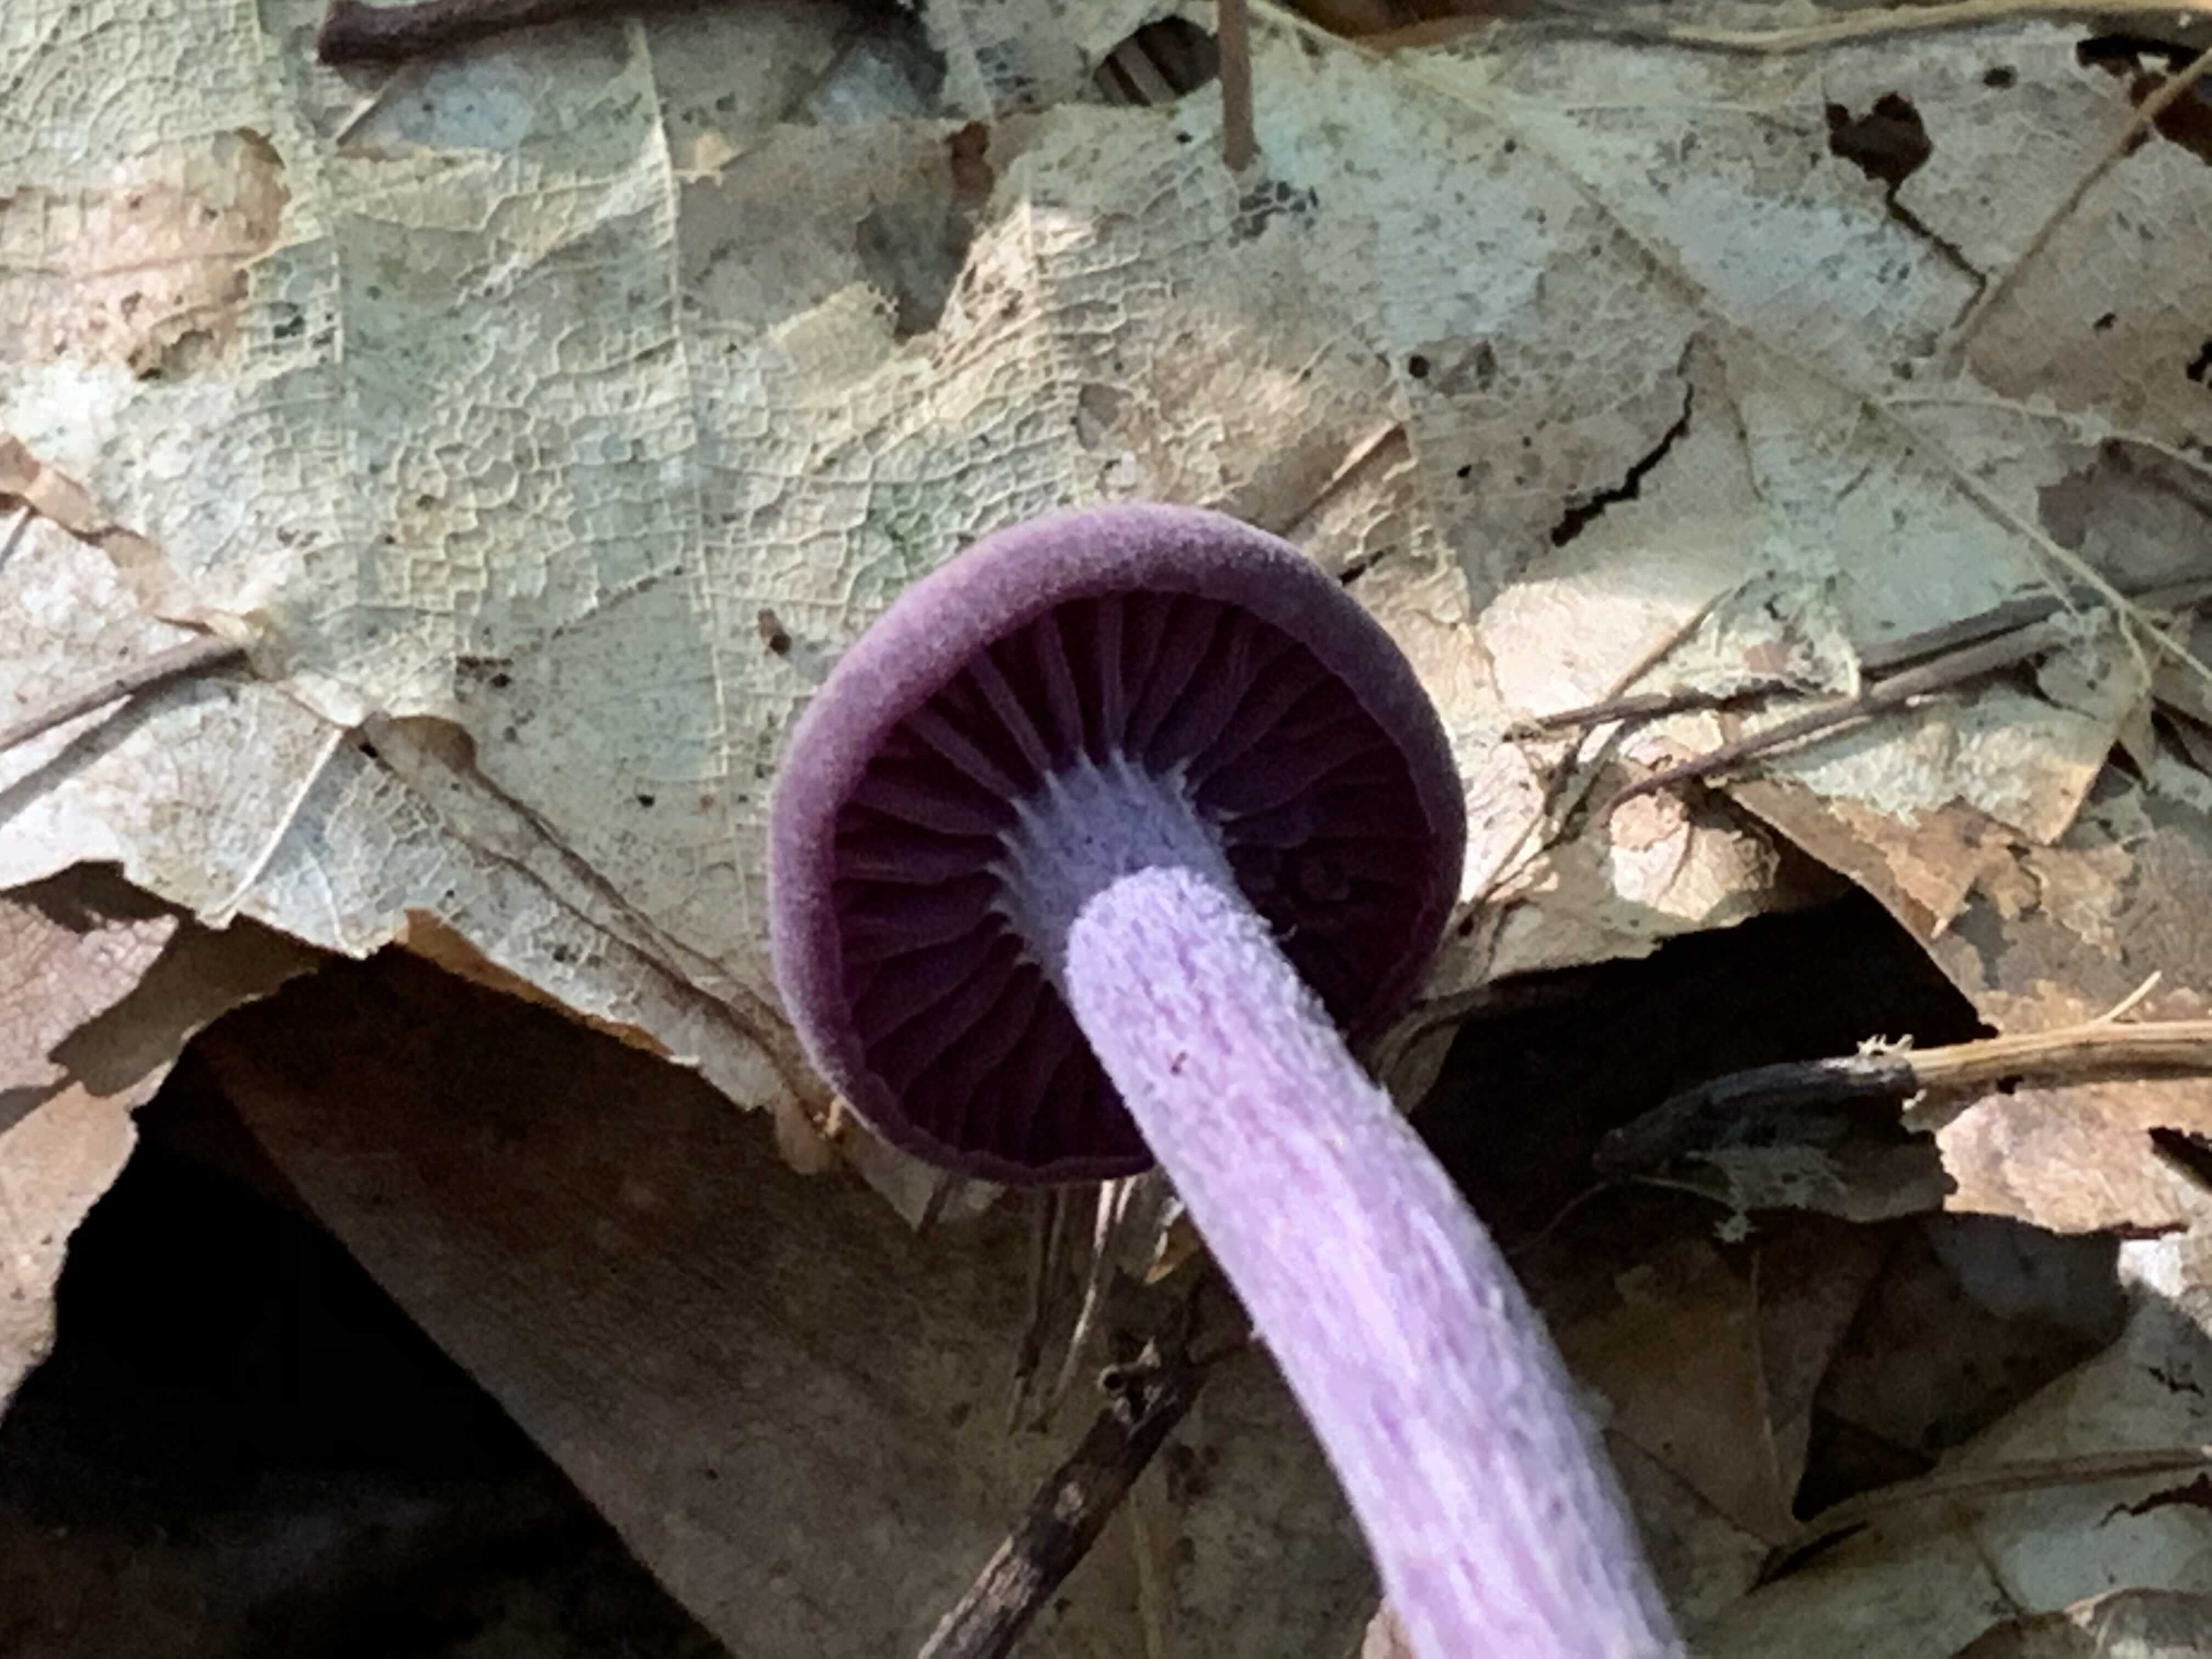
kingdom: Fungi
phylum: Basidiomycota
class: Agaricomycetes
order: Agaricales
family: Hydnangiaceae
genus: Laccaria
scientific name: Laccaria amethystina
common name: violet ametysthat
